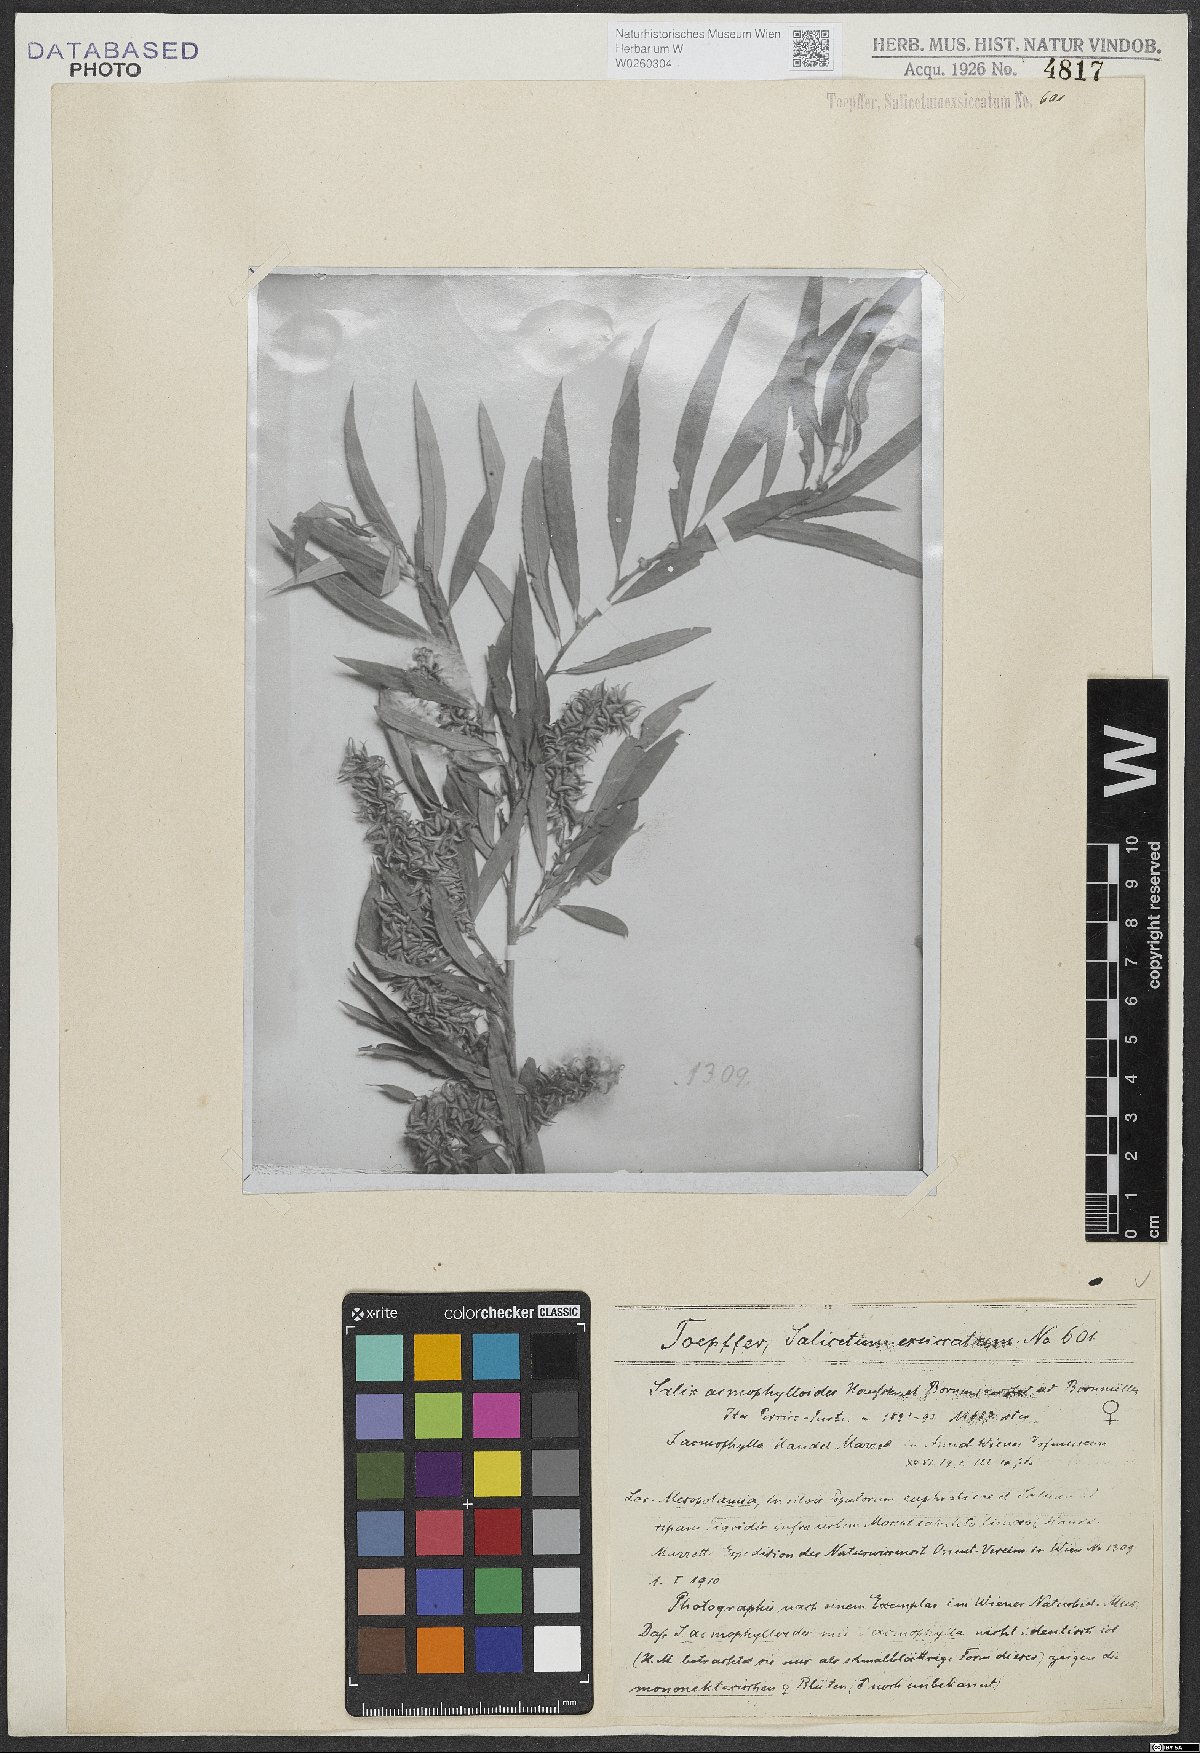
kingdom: Plantae
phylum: Tracheophyta
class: Magnoliopsida
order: Malpighiales
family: Salicaceae
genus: Salix
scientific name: Salix
